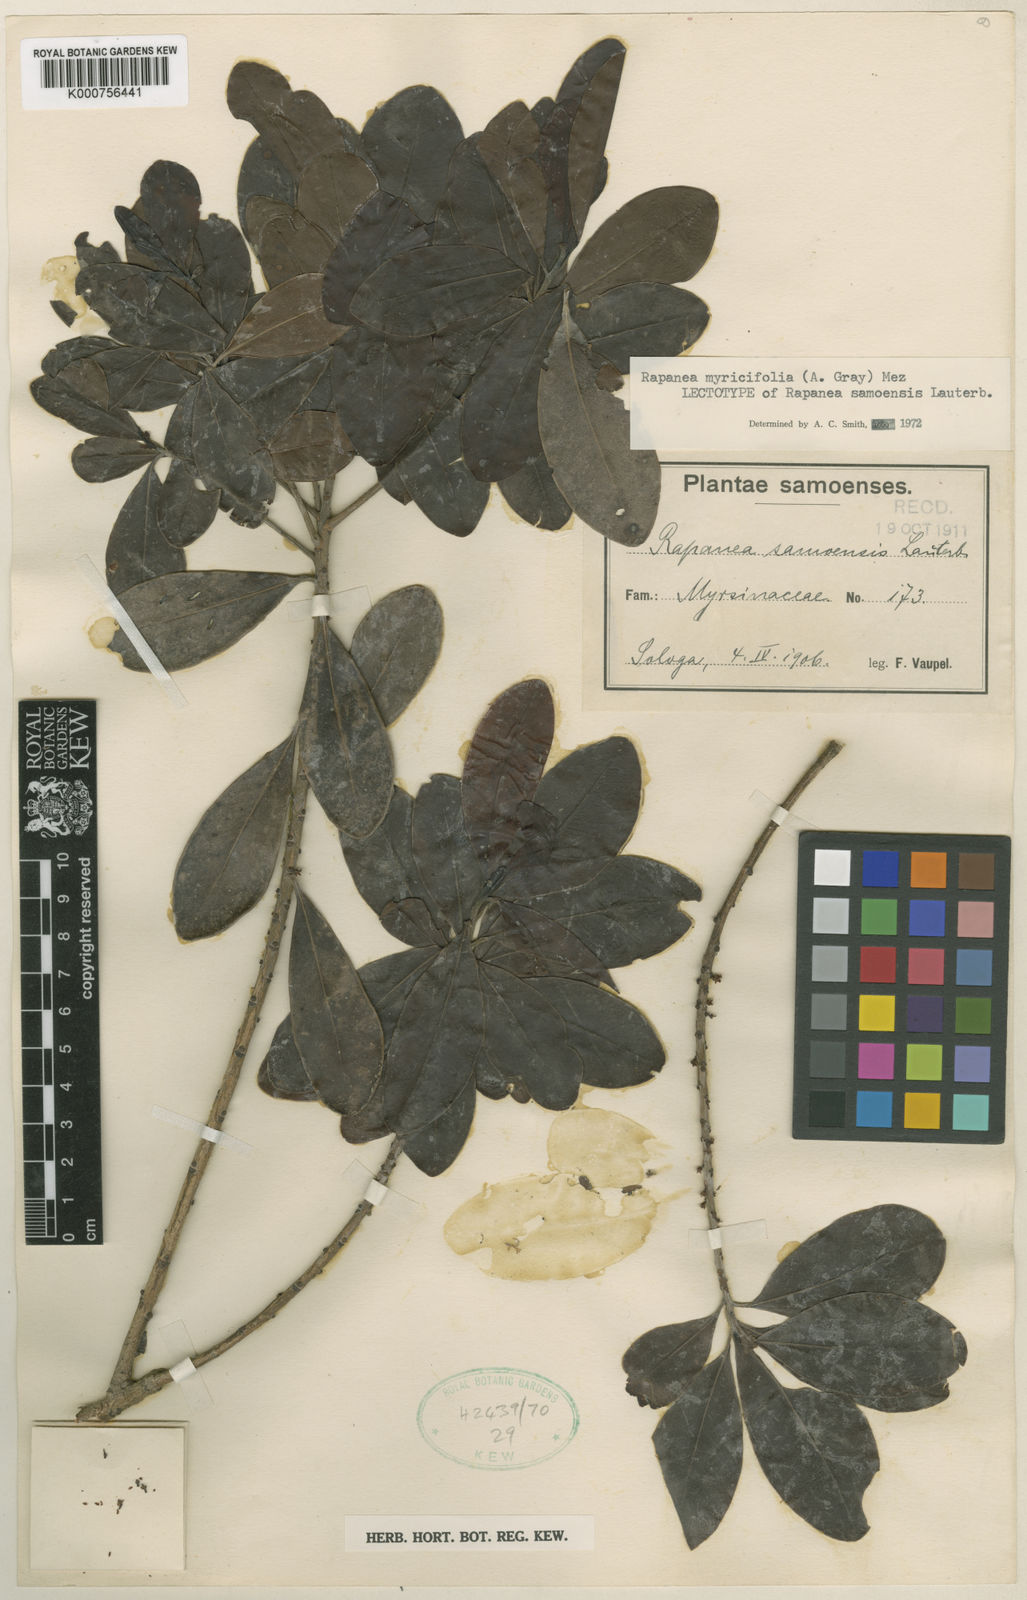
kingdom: Plantae
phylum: Tracheophyta
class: Magnoliopsida
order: Ericales
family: Primulaceae
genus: Myrsine
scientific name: Myrsine myricifolia
